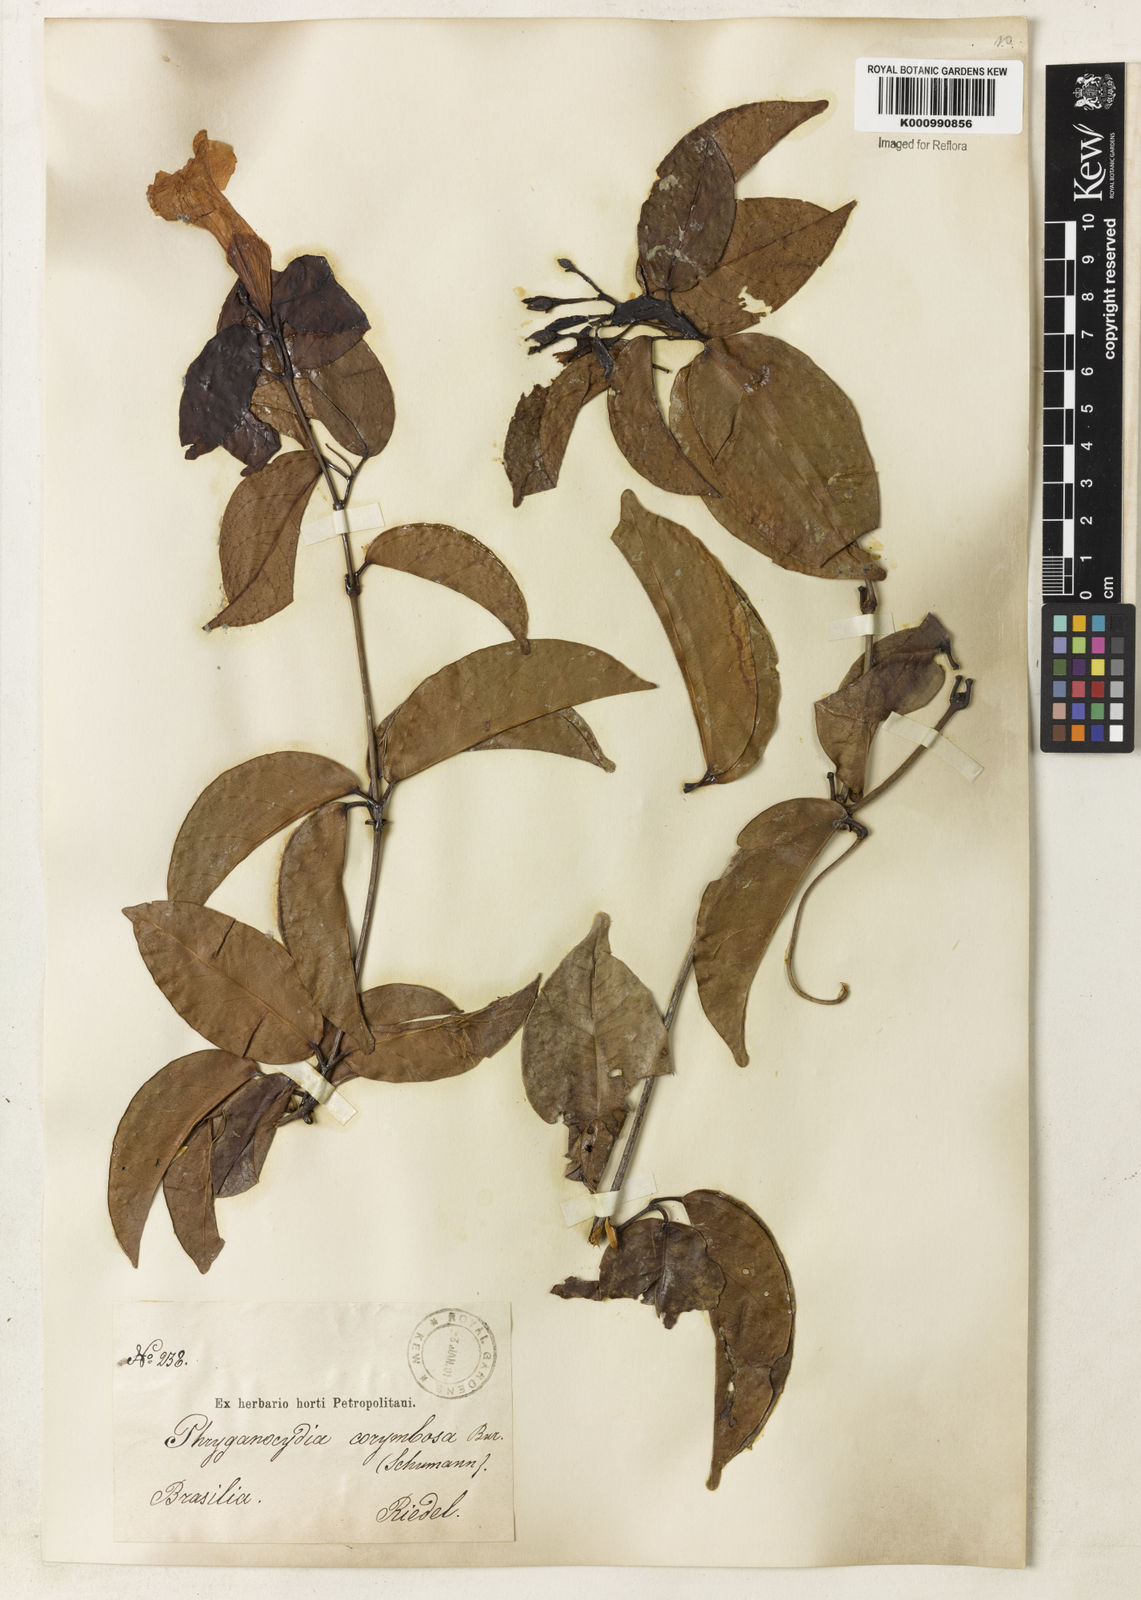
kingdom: Plantae
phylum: Tracheophyta
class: Magnoliopsida
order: Lamiales
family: Bignoniaceae
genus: Bignonia
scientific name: Bignonia corymbosa
